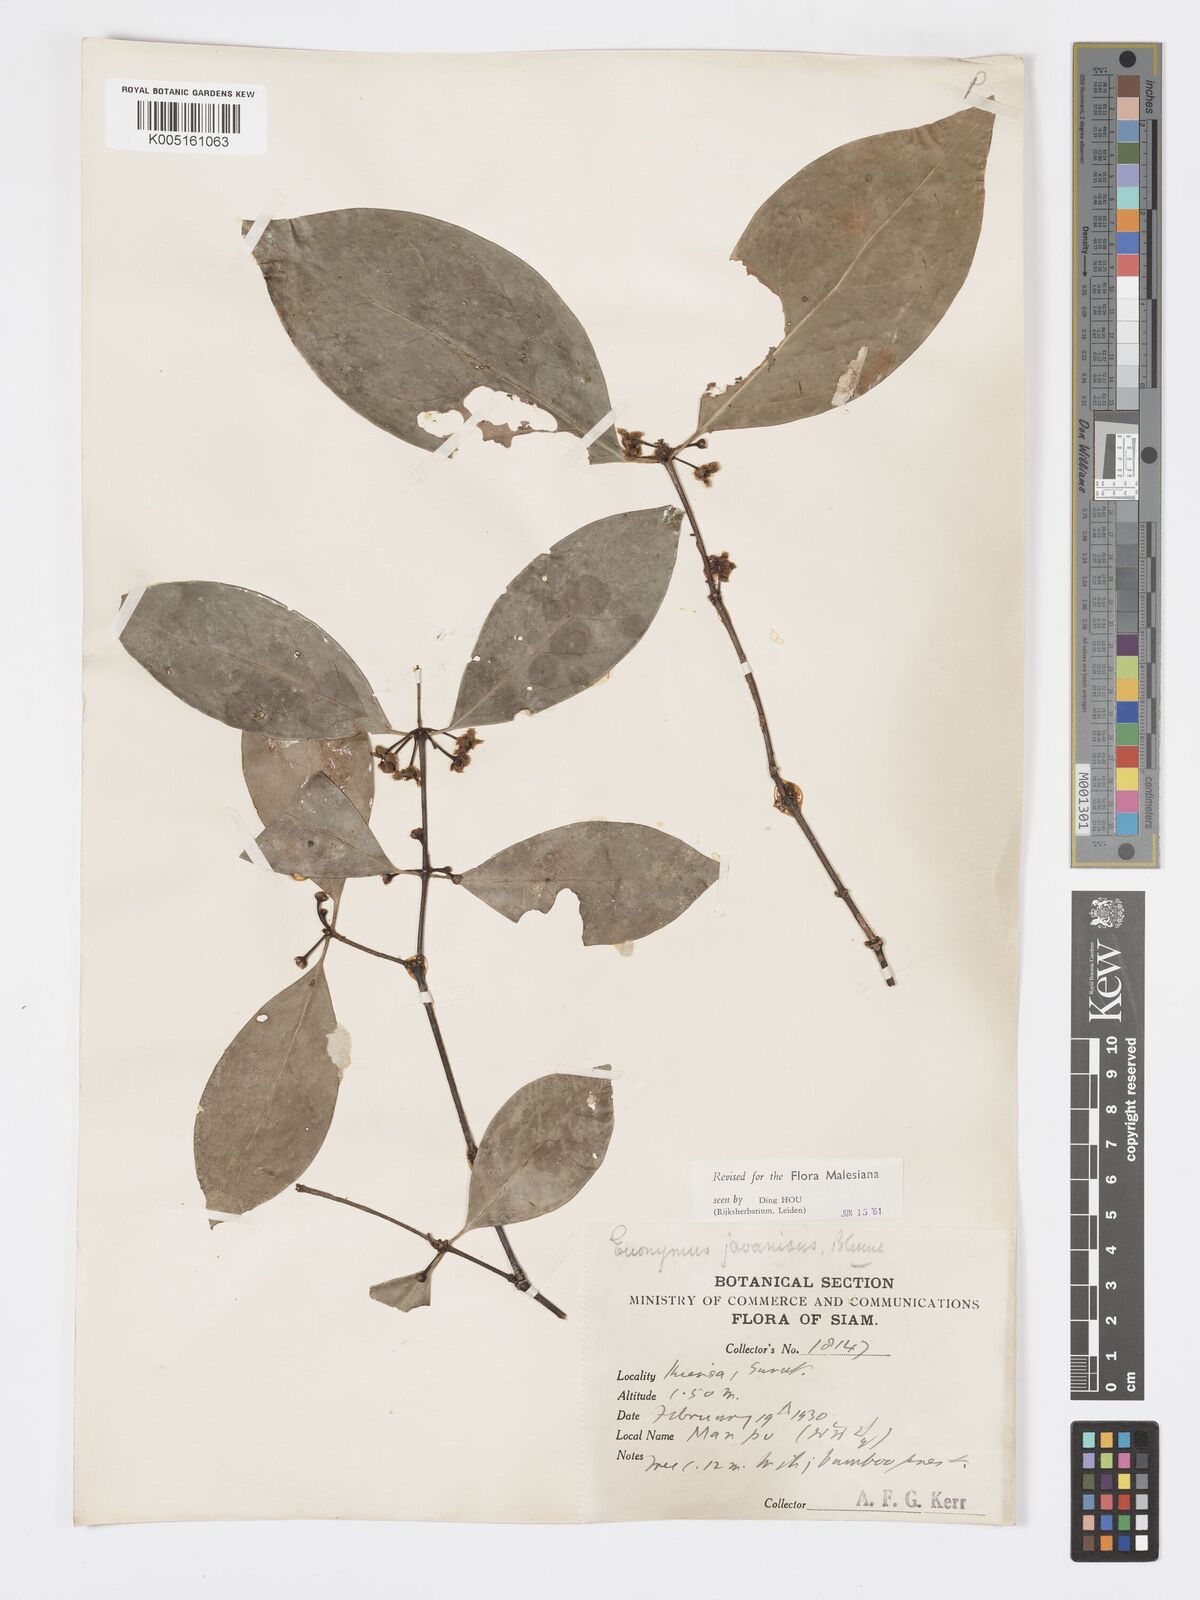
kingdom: Plantae
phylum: Tracheophyta
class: Magnoliopsida
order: Celastrales
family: Celastraceae
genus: Euonymus
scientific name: Euonymus indicus
